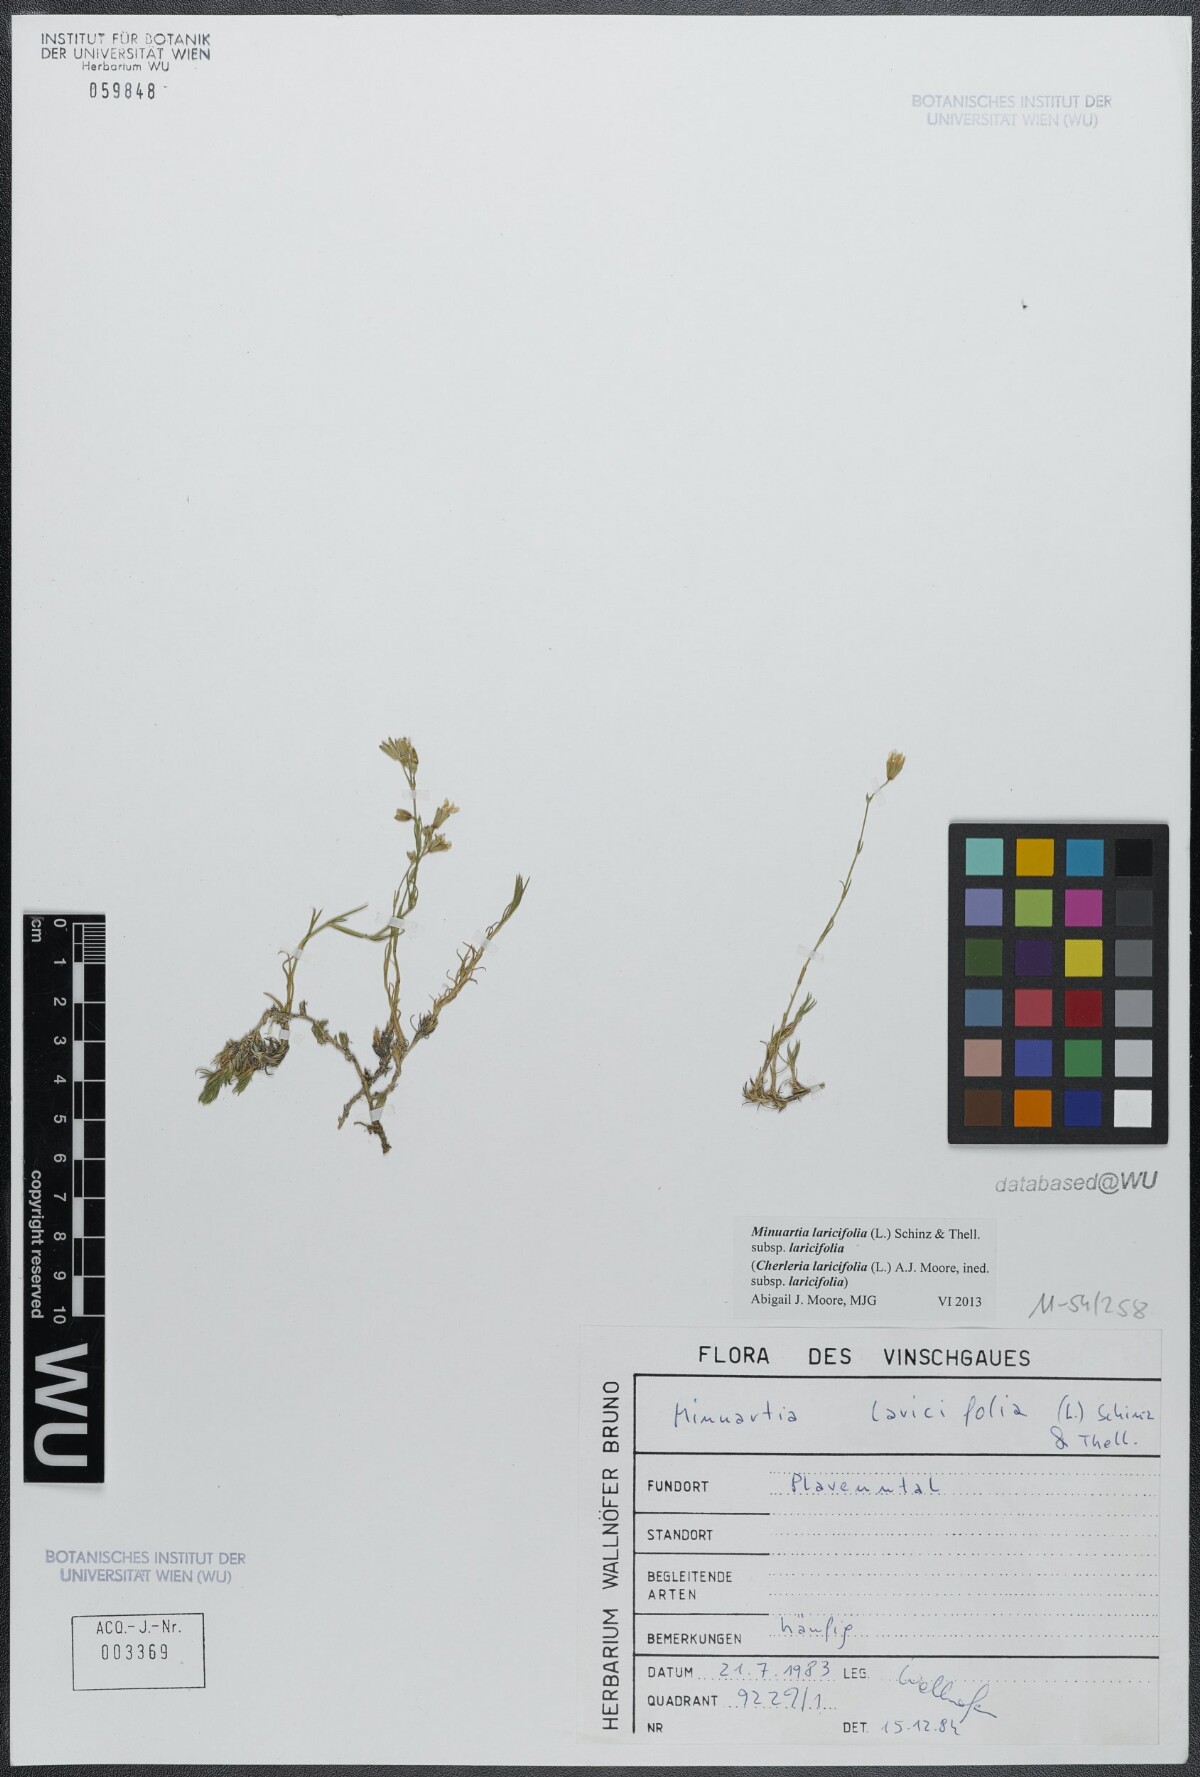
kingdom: Plantae
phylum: Tracheophyta
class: Magnoliopsida
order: Caryophyllales
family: Caryophyllaceae
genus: Cherleria
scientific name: Cherleria laricifolia
